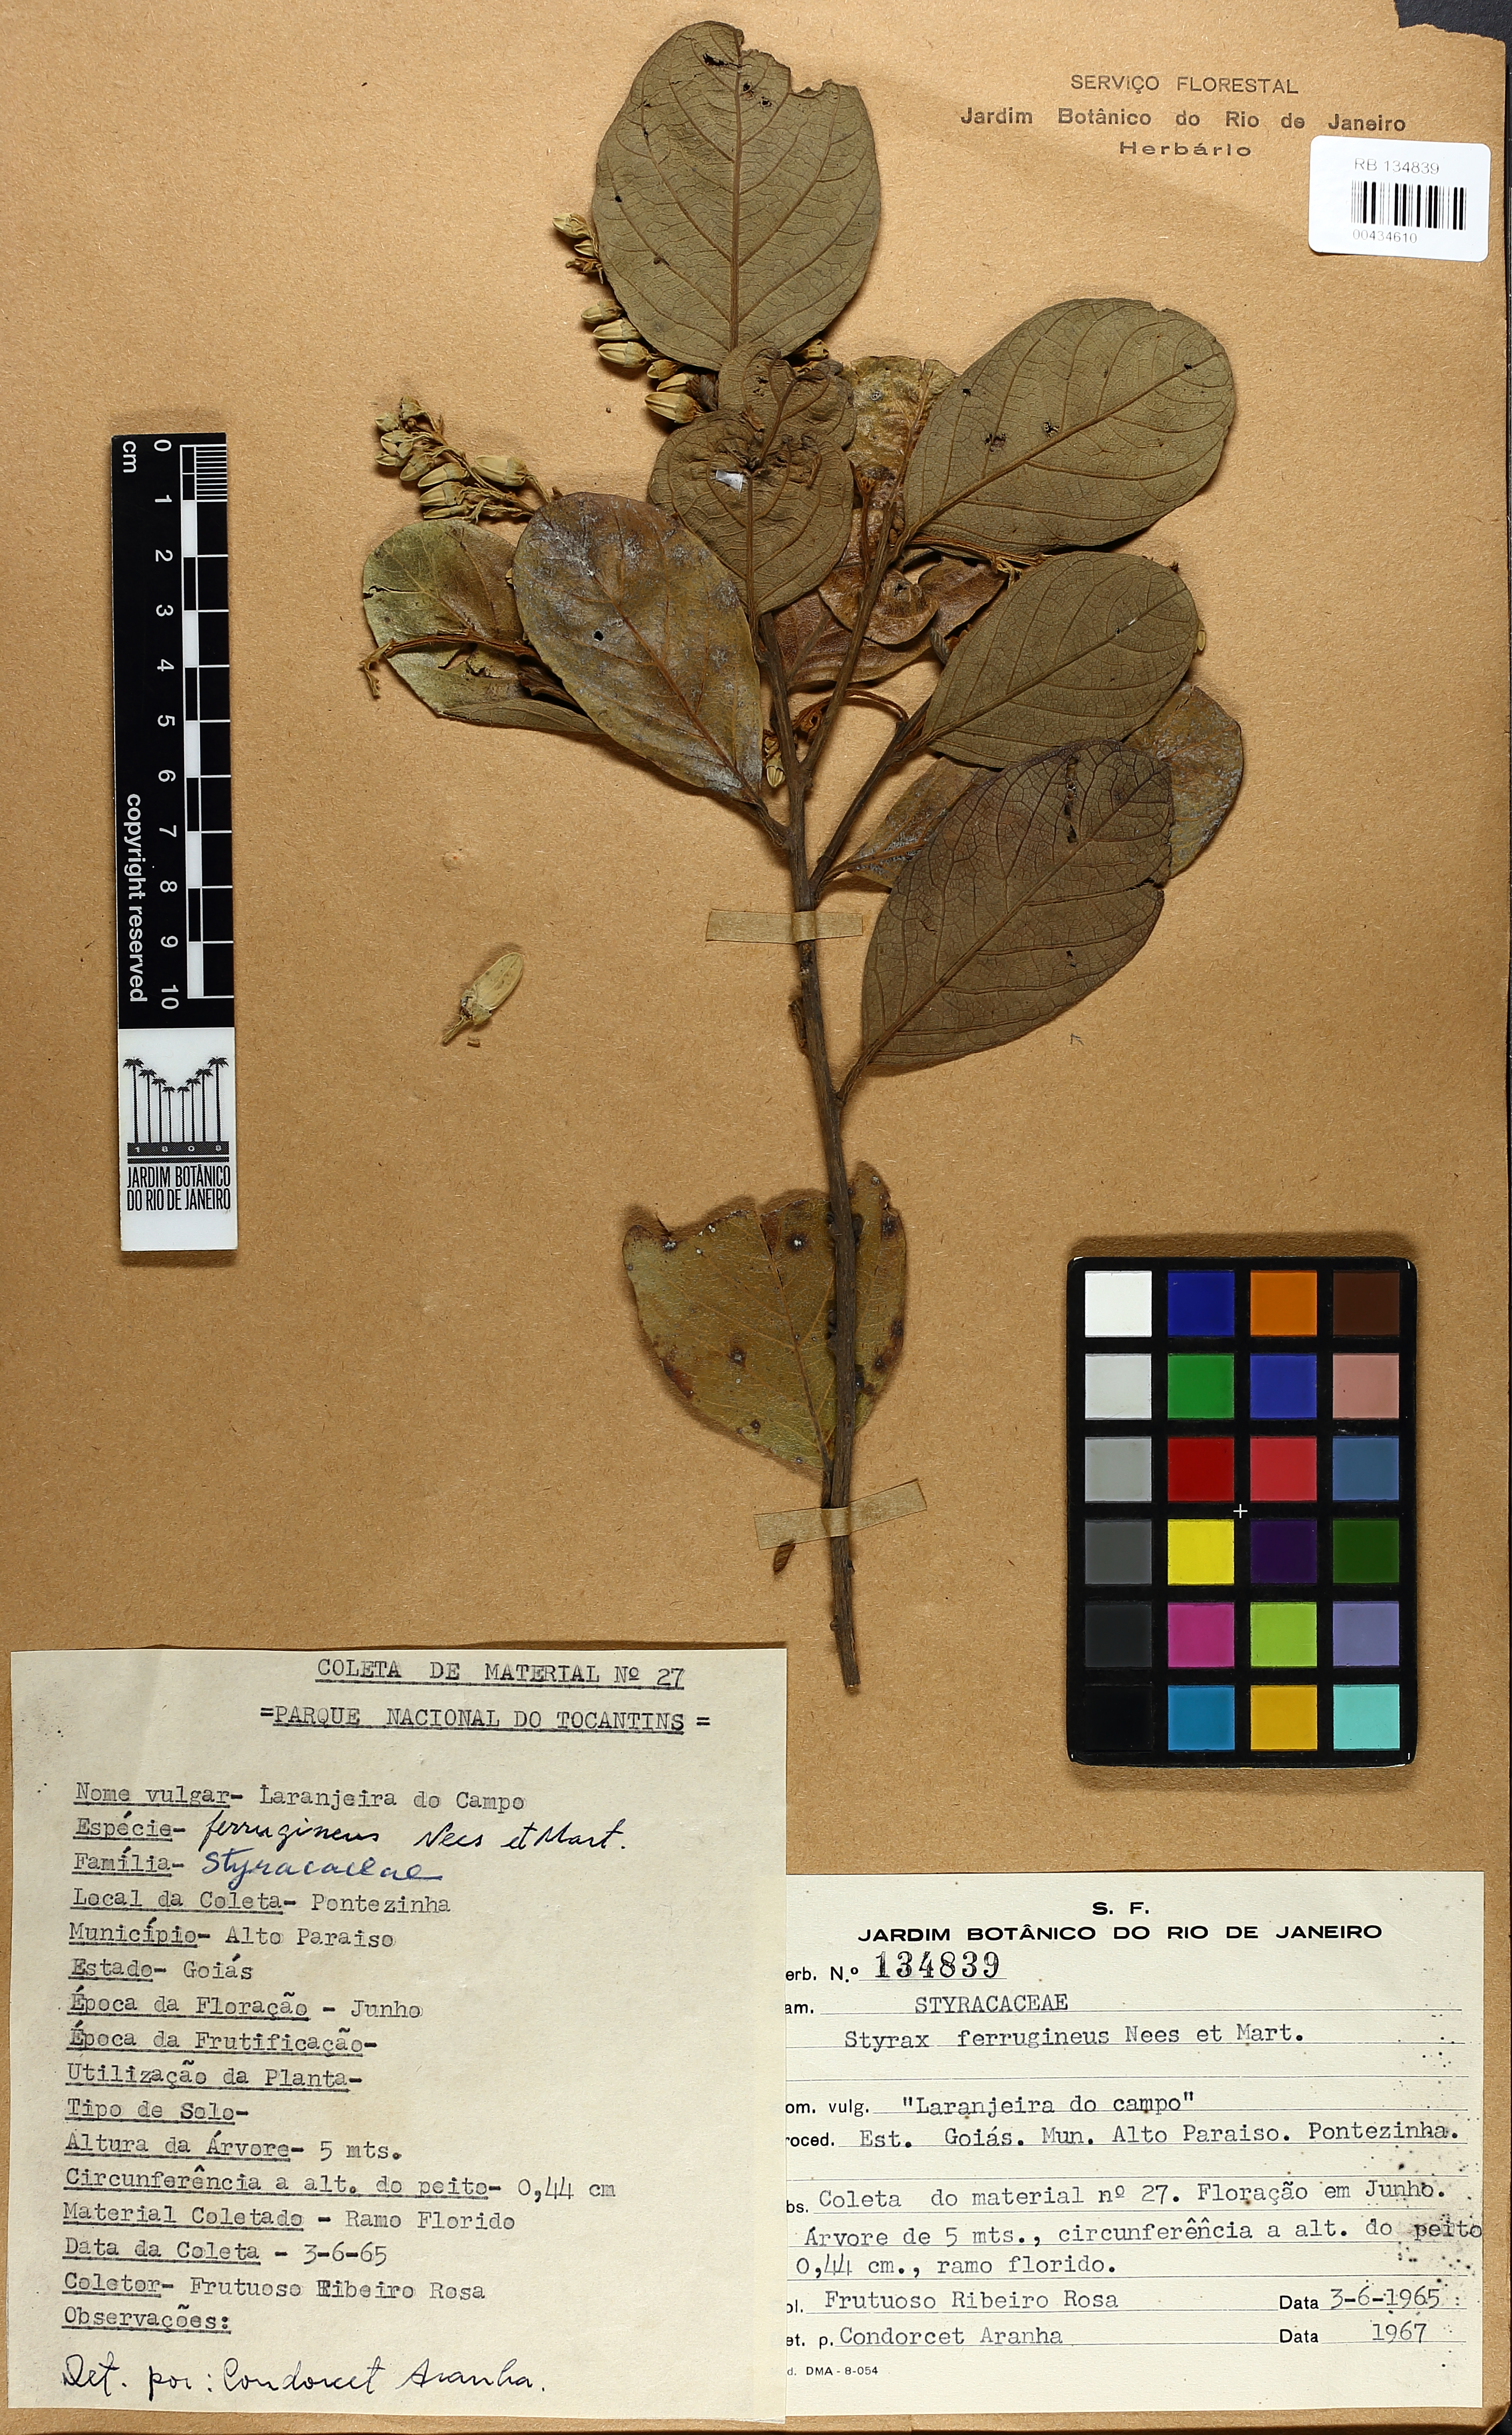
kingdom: Plantae
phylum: Tracheophyta
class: Magnoliopsida
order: Ericales
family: Styracaceae
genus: Styrax
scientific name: Styrax ferrugineus
